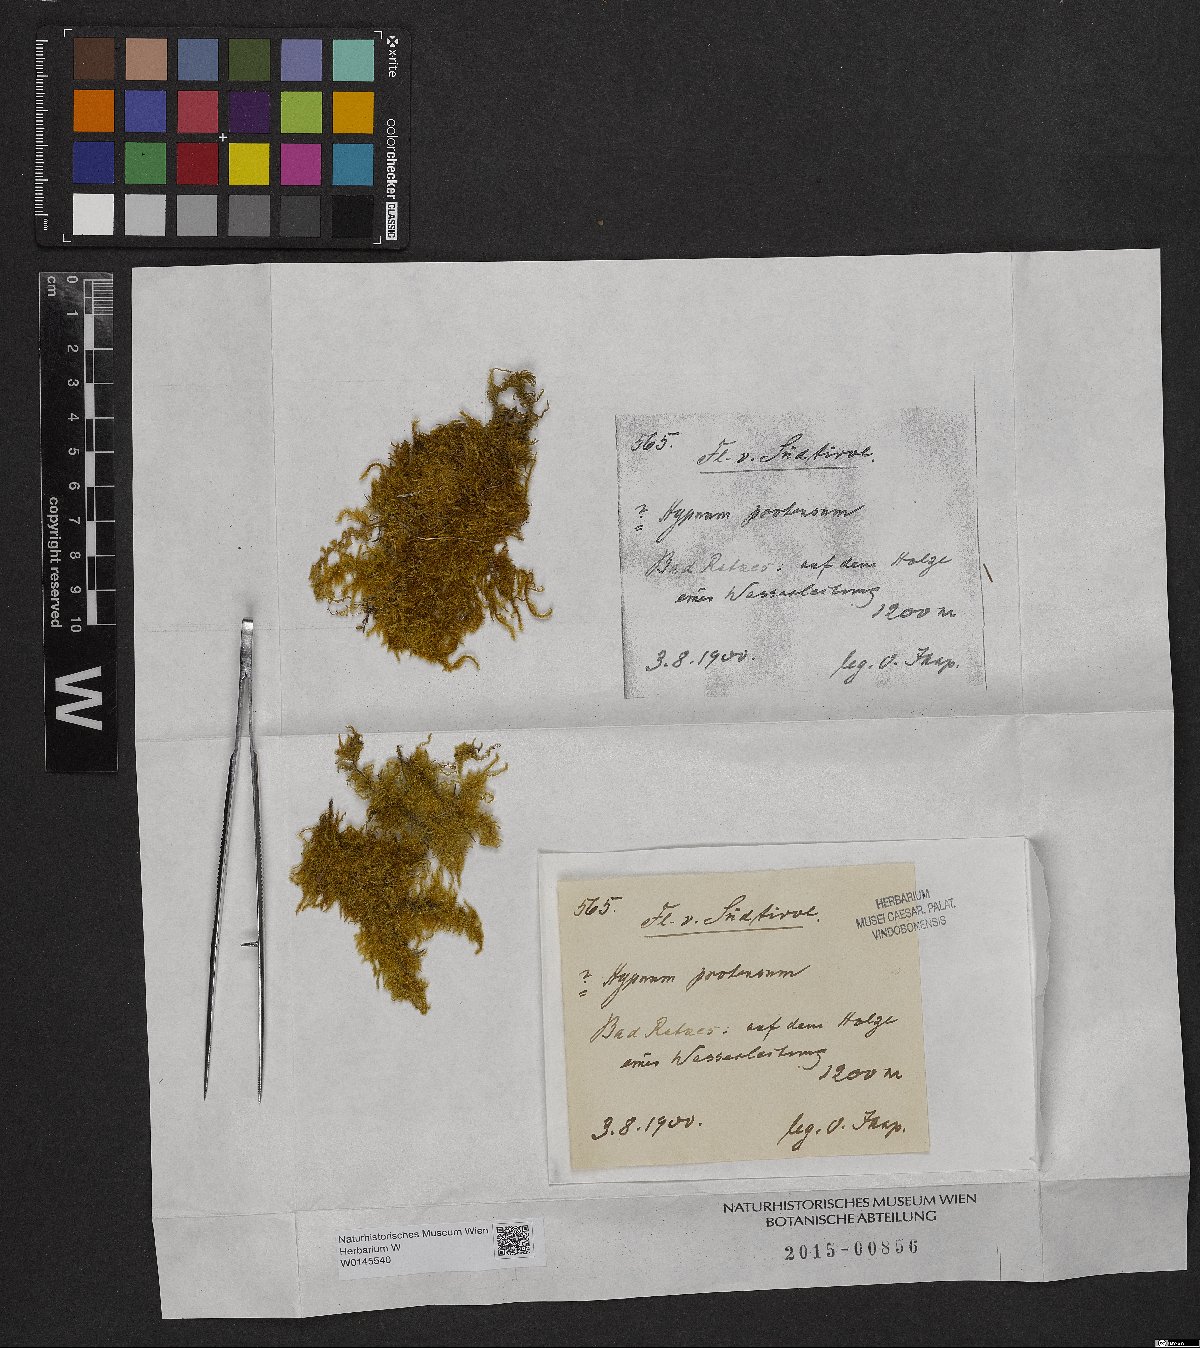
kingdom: Plantae
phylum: Bryophyta
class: Bryopsida
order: Hypnales
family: Amblystegiaceae
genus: Campylium
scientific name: Campylium protensum
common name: Dull starry fen moss
